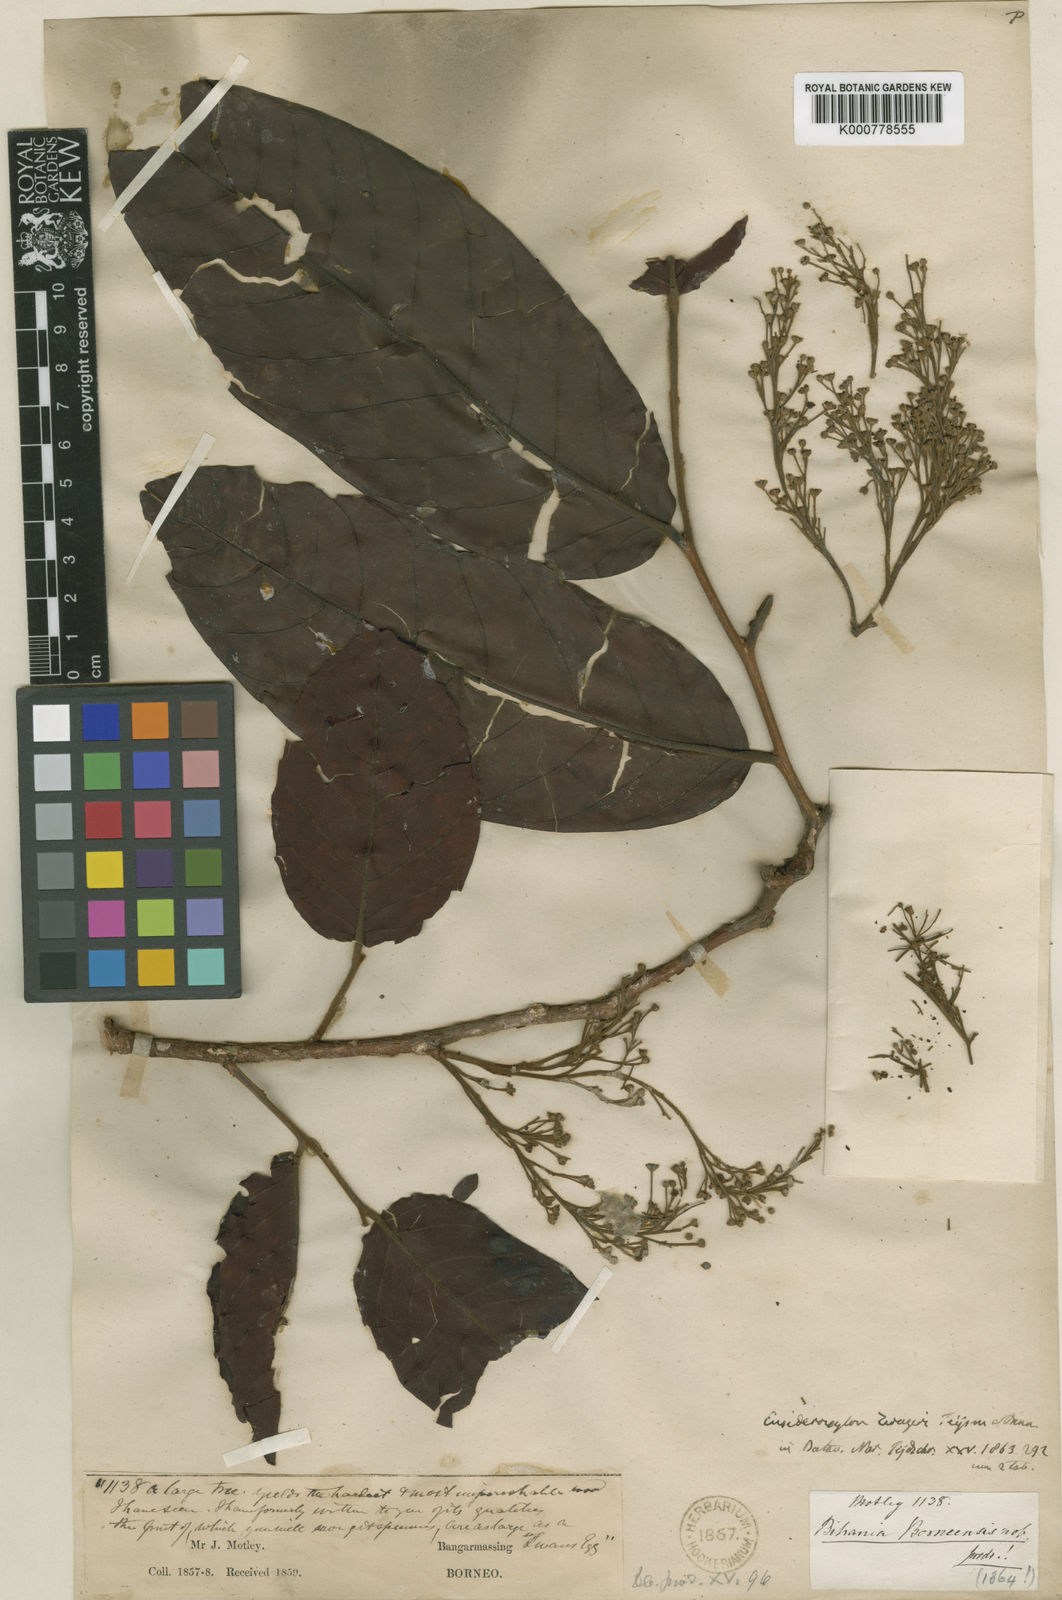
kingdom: Plantae
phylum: Tracheophyta
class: Magnoliopsida
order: Laurales
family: Lauraceae
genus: Eusideroxylon
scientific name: Eusideroxylon zwageri
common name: Borneo ironwood
